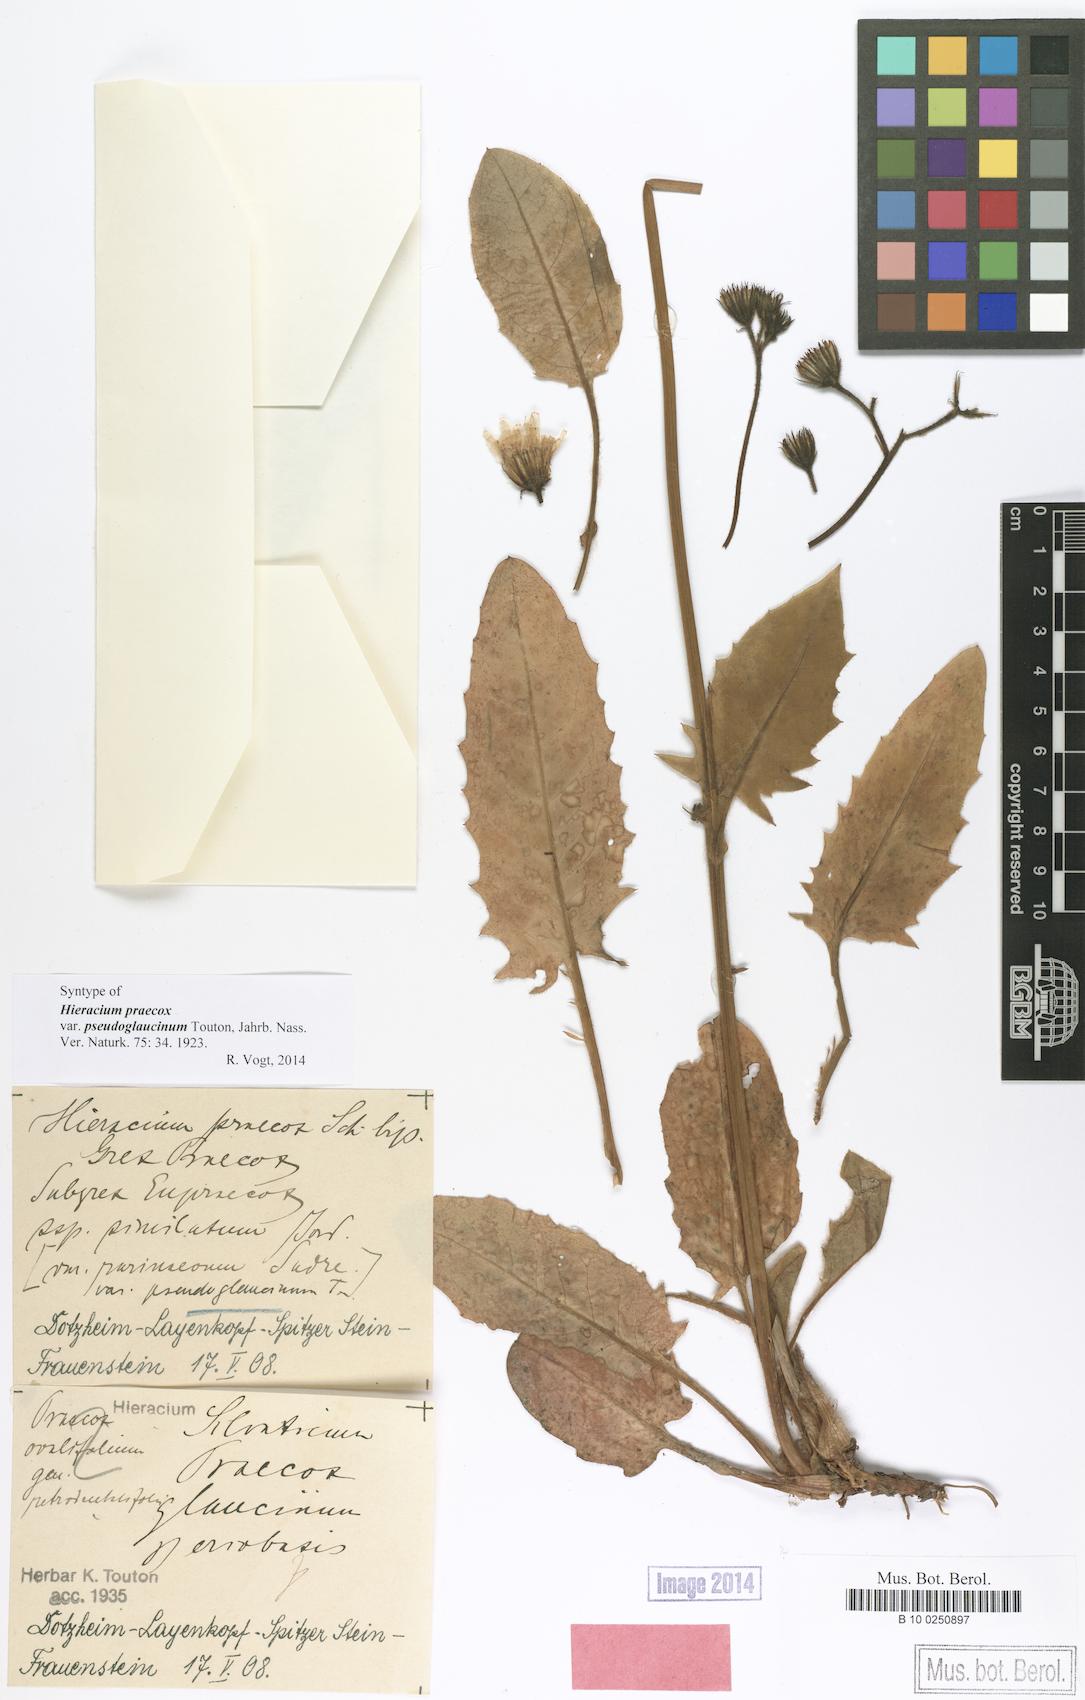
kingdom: Plantae
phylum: Tracheophyta
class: Magnoliopsida
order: Asterales
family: Asteraceae
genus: Hieracium
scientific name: Hieracium praecox
